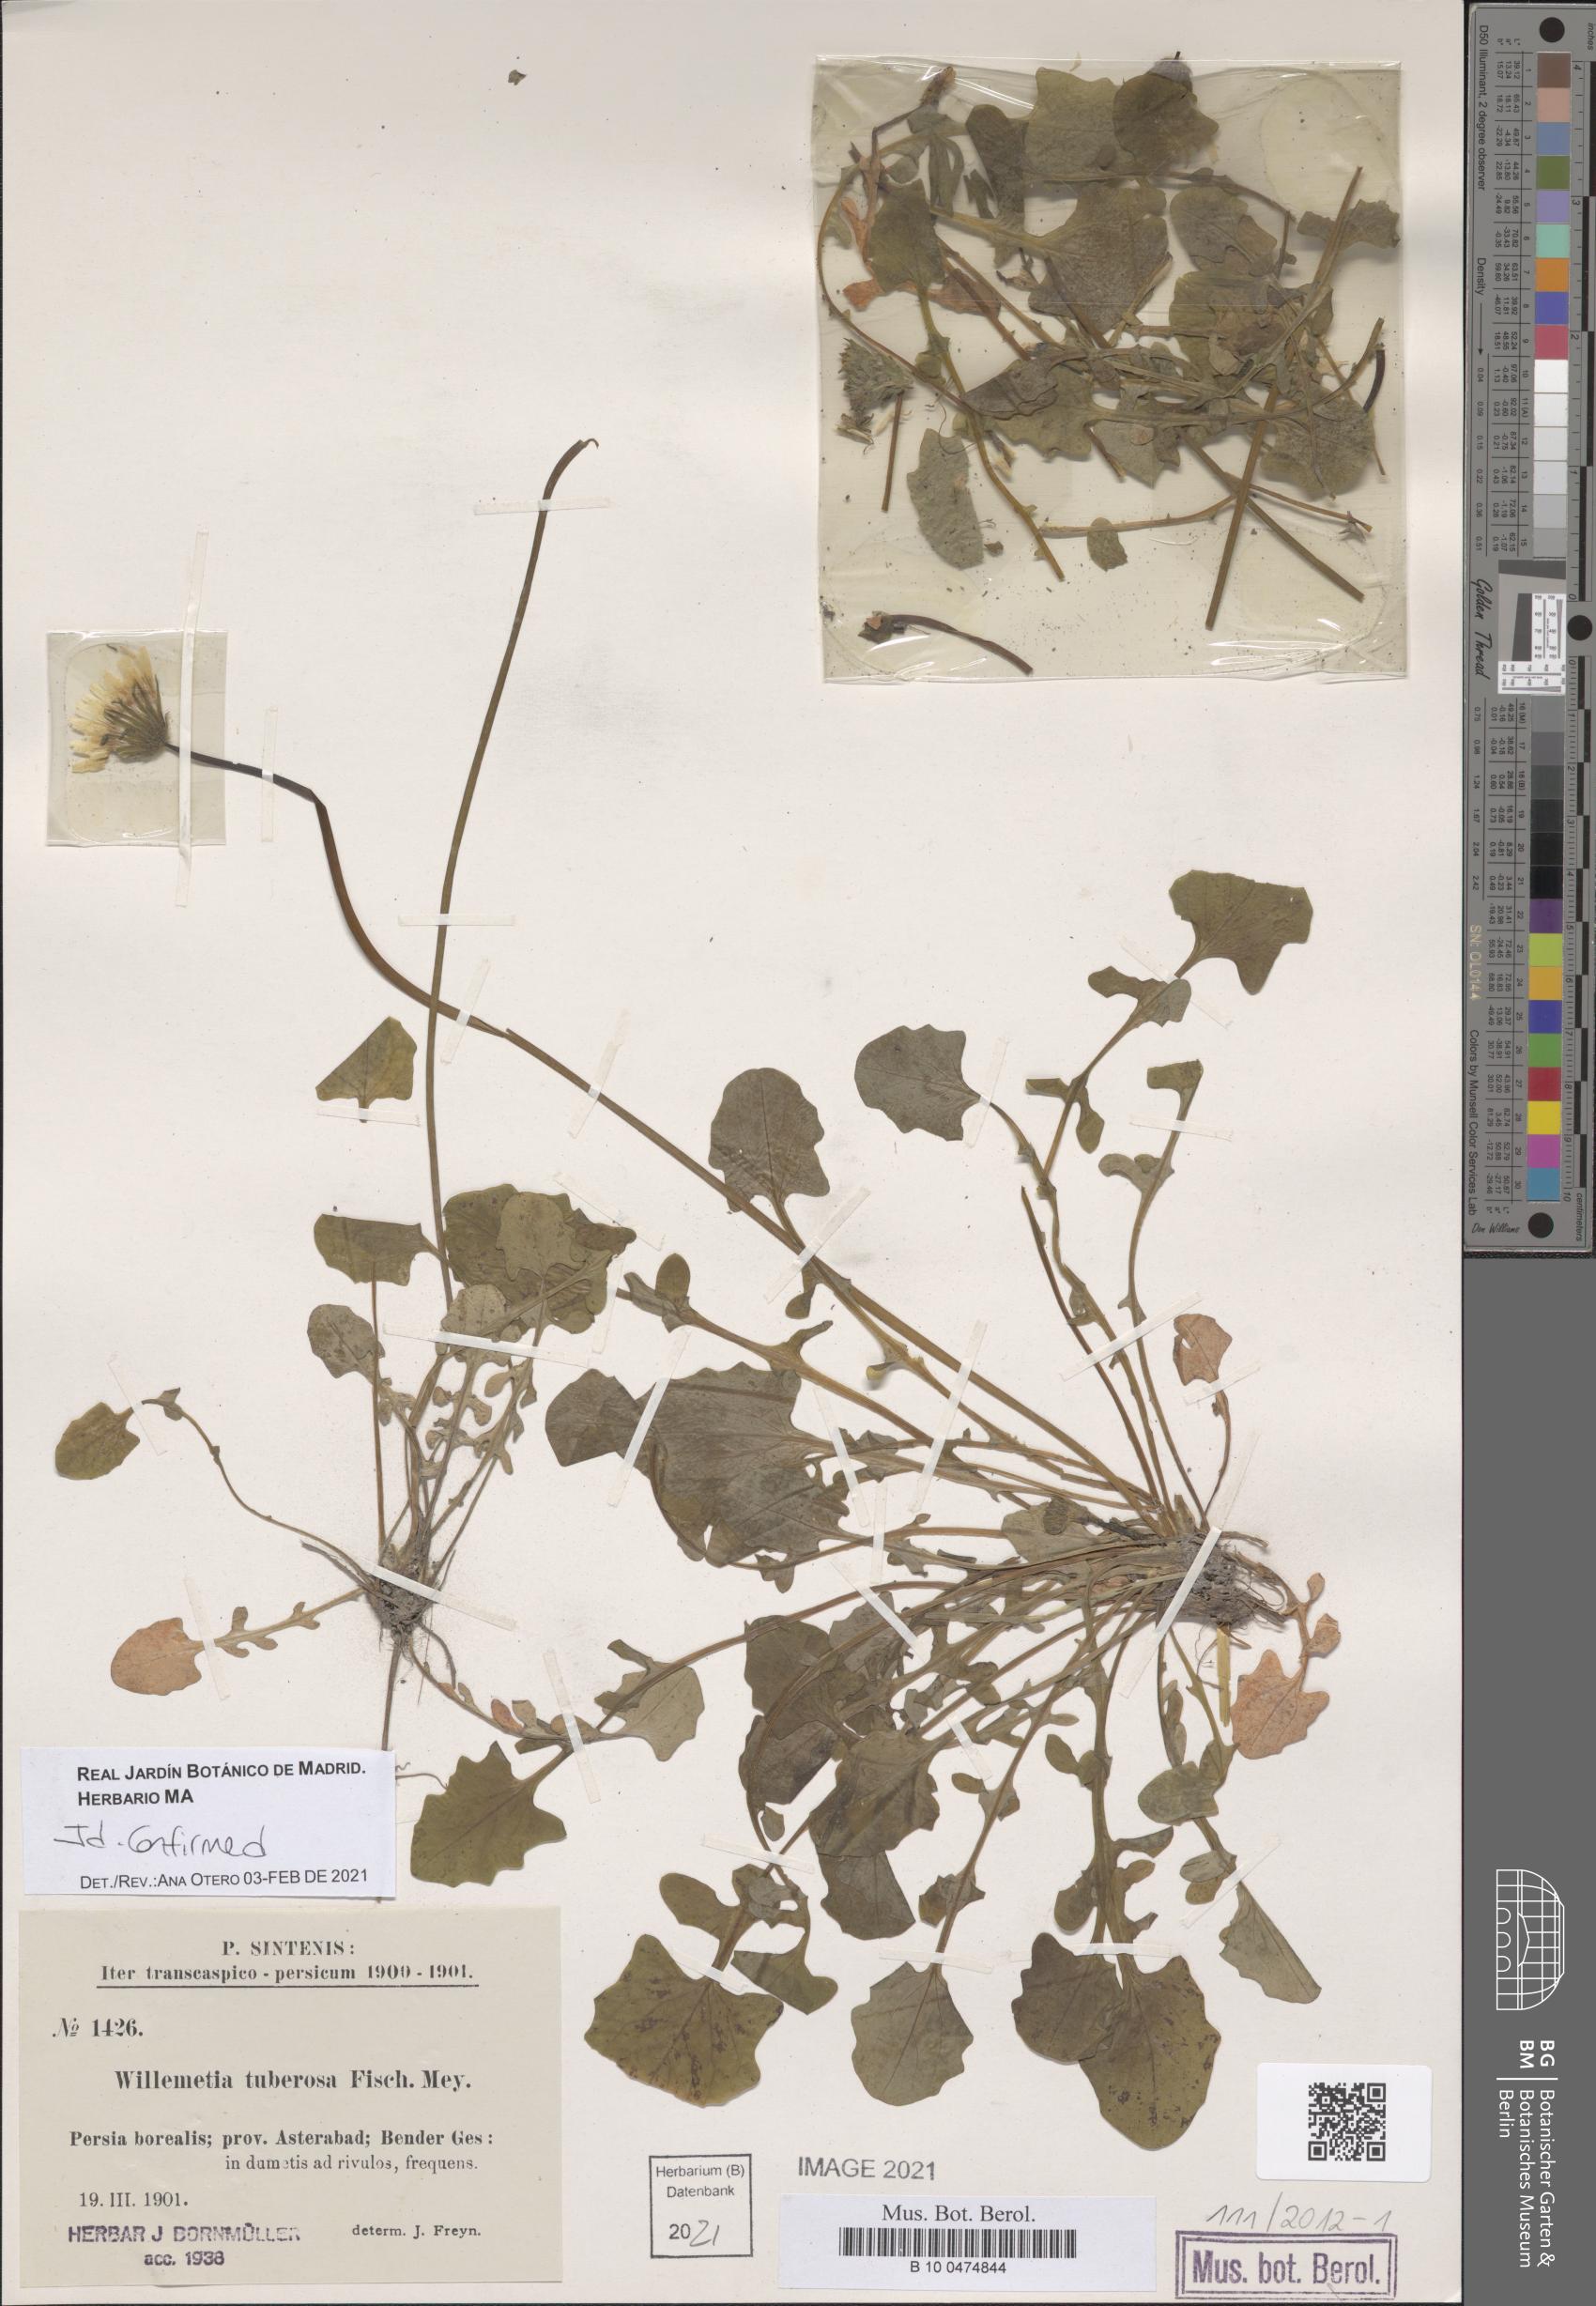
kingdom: Plantae
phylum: Tracheophyta
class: Magnoliopsida
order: Asterales
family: Asteraceae
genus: Willemetia
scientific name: Willemetia tuberosa
